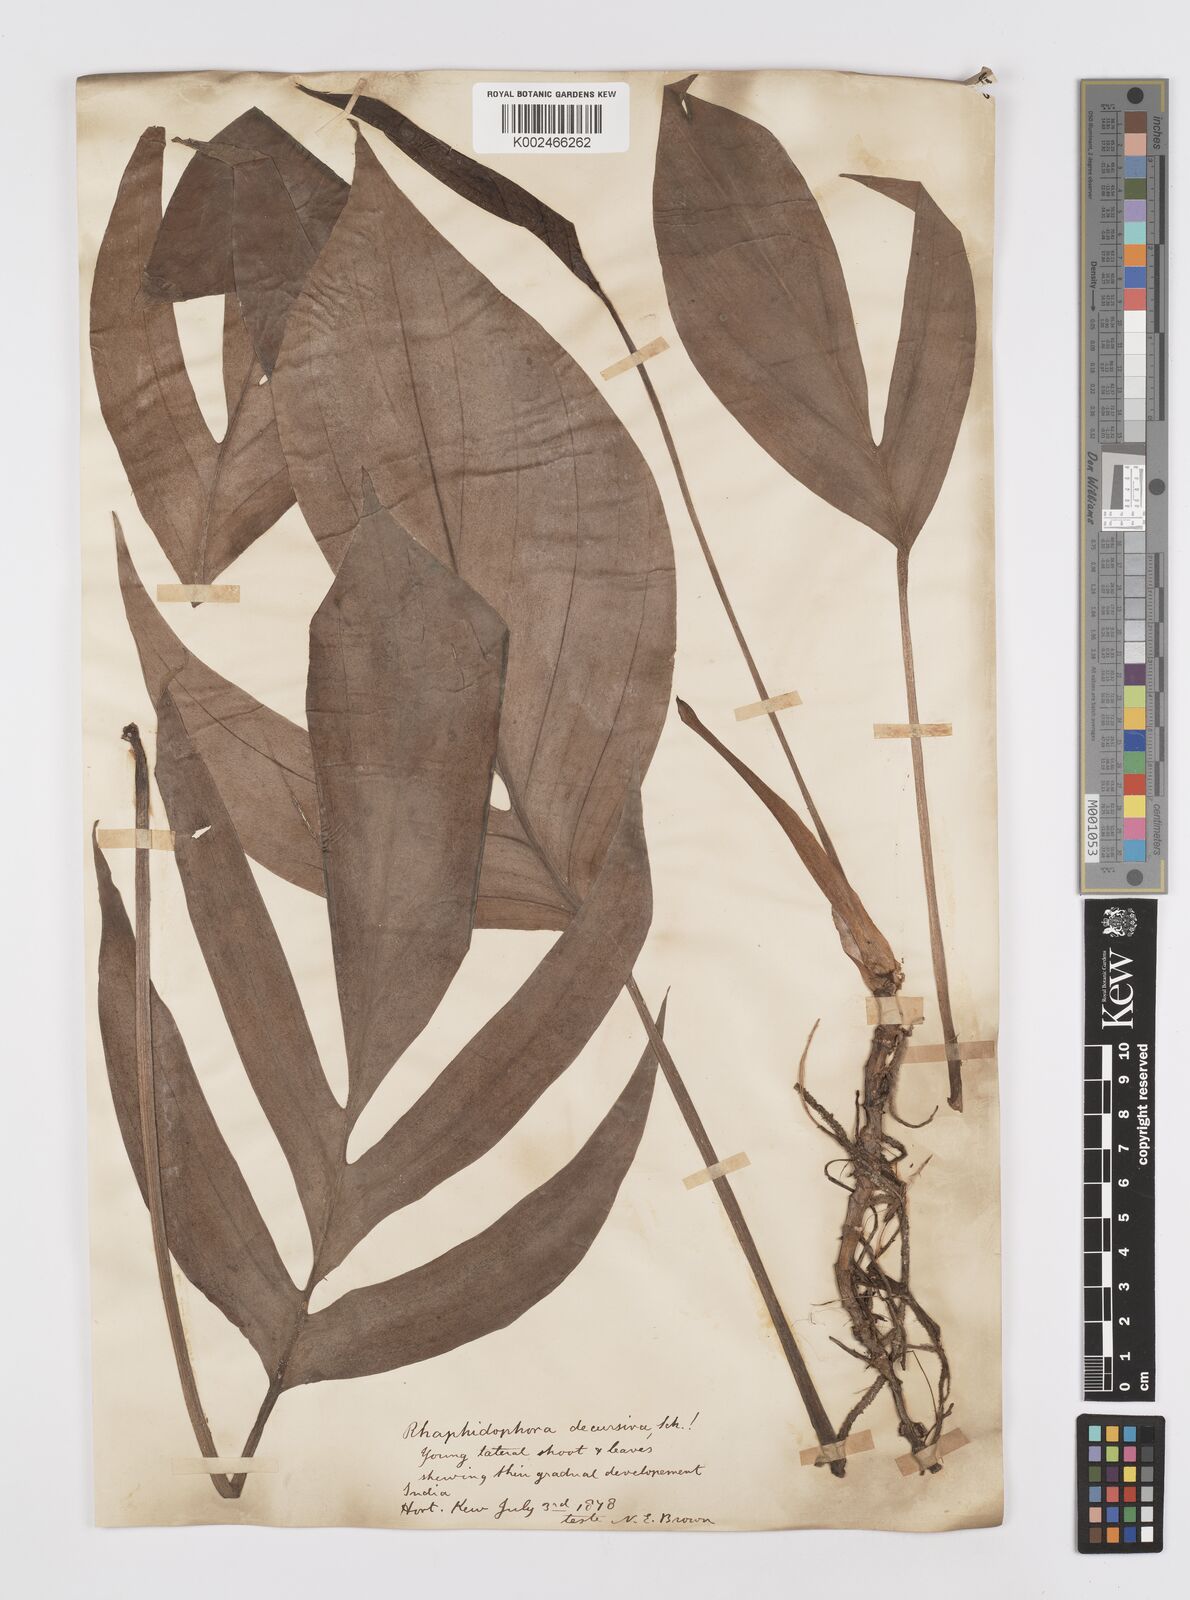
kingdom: Plantae
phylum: Tracheophyta
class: Liliopsida
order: Alismatales
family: Araceae
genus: Rhaphidophora
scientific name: Rhaphidophora decursiva
